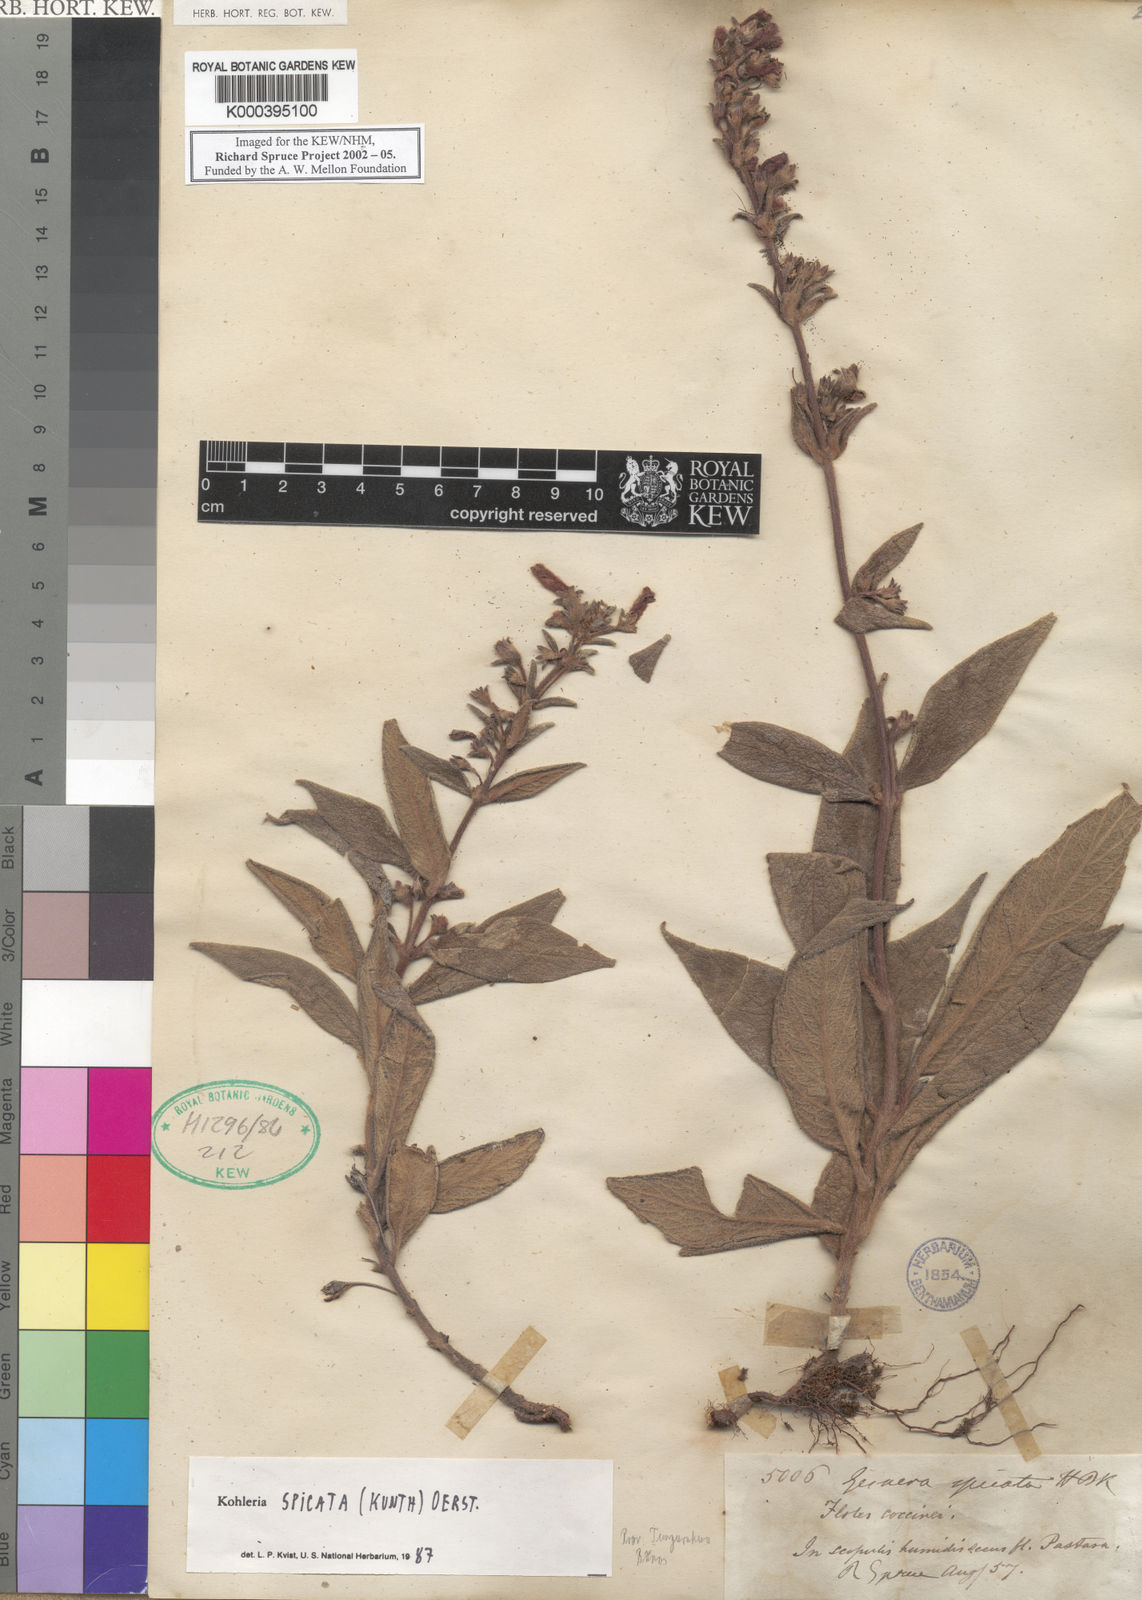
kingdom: Plantae
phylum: Tracheophyta
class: Magnoliopsida
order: Lamiales
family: Gesneriaceae
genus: Kohleria
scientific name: Kohleria spicata
